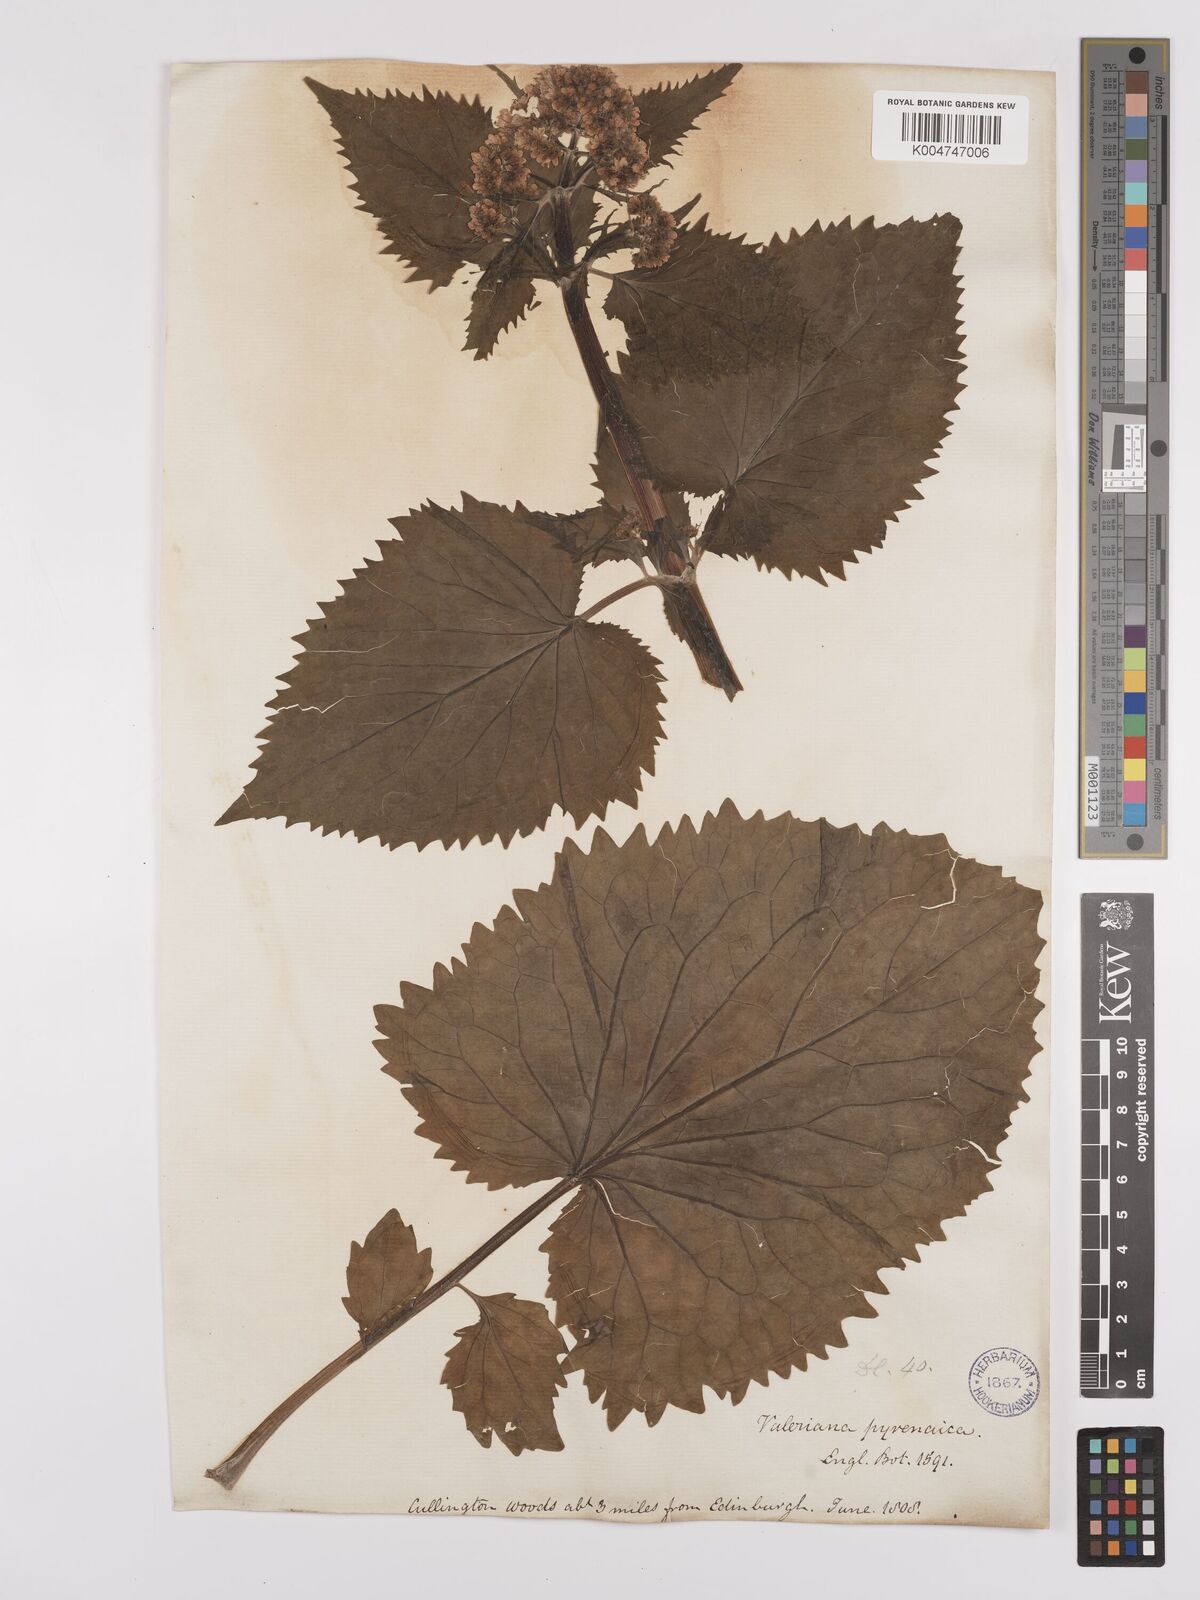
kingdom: Plantae
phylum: Tracheophyta
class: Magnoliopsida
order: Dipsacales
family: Caprifoliaceae
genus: Valeriana
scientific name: Valeriana pyrenaica
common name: Pyrenean valerian
